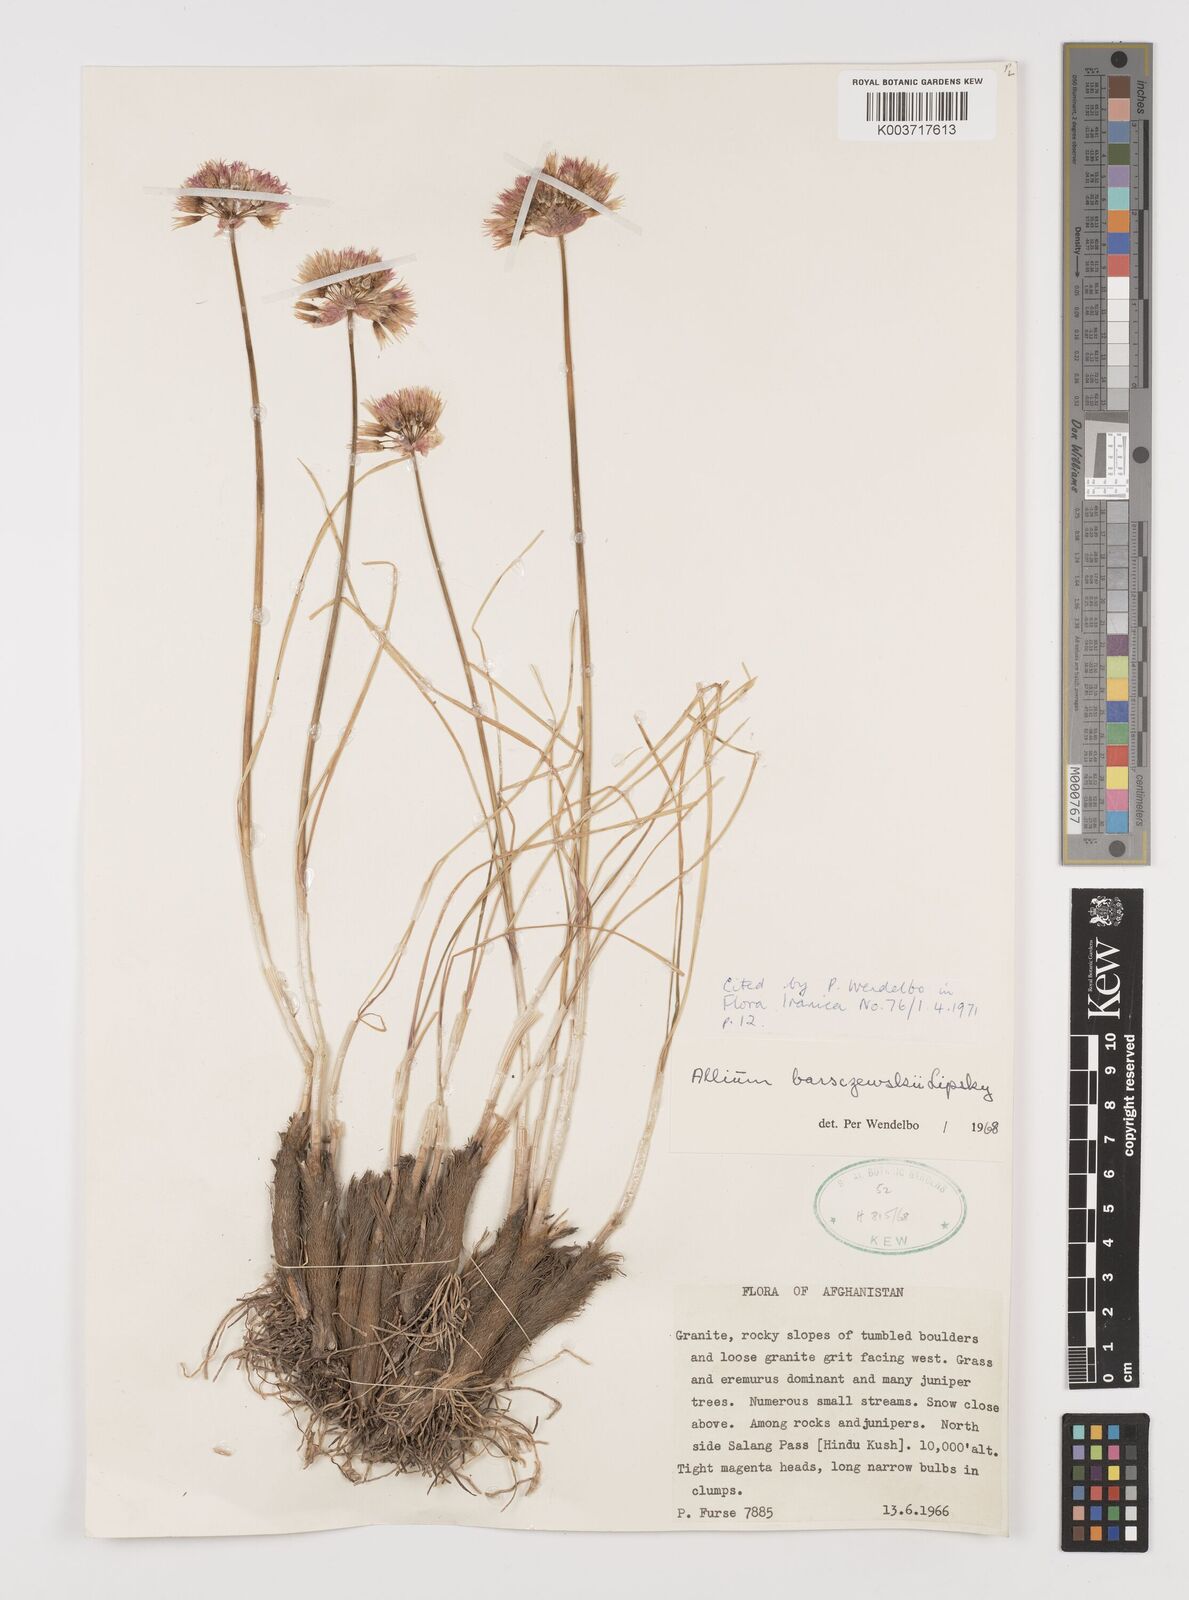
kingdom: Plantae
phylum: Tracheophyta
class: Liliopsida
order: Asparagales
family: Amaryllidaceae
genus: Allium
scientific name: Allium barsczewskii
